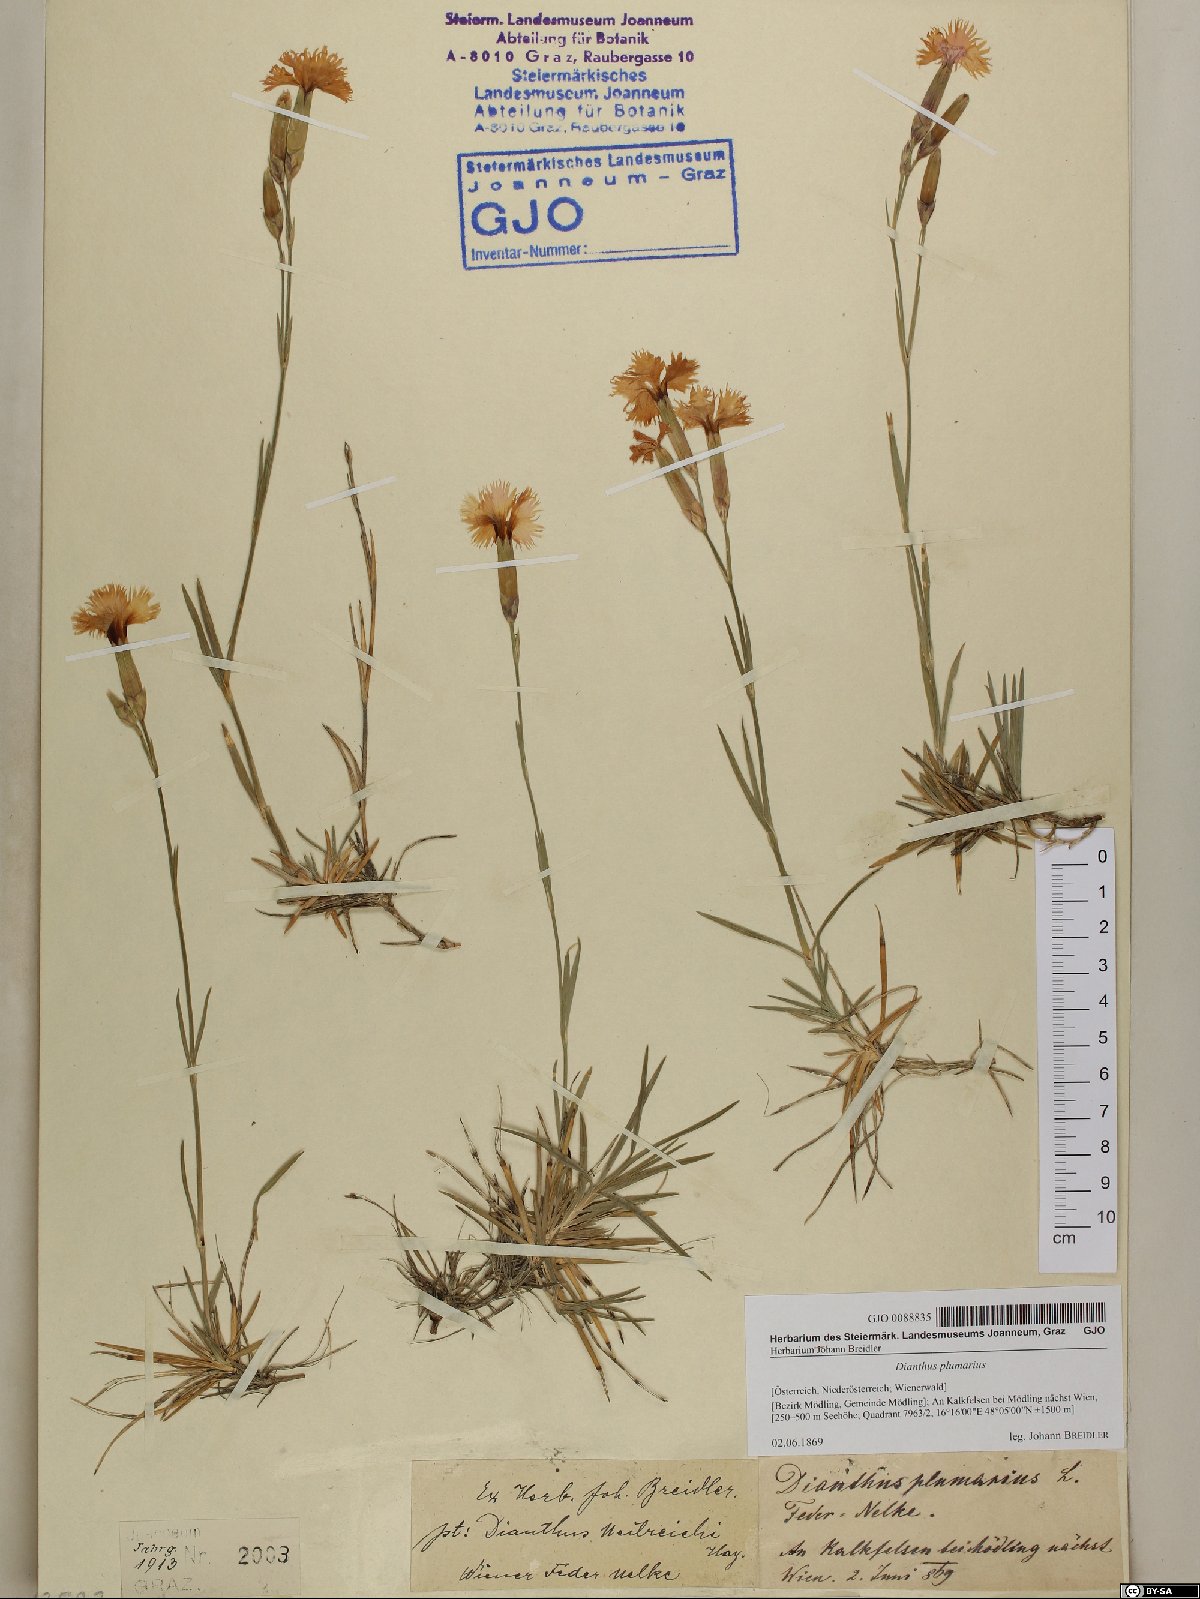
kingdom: Plantae
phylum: Tracheophyta
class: Magnoliopsida
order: Caryophyllales
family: Caryophyllaceae
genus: Dianthus
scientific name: Dianthus plumarius
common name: Pink
